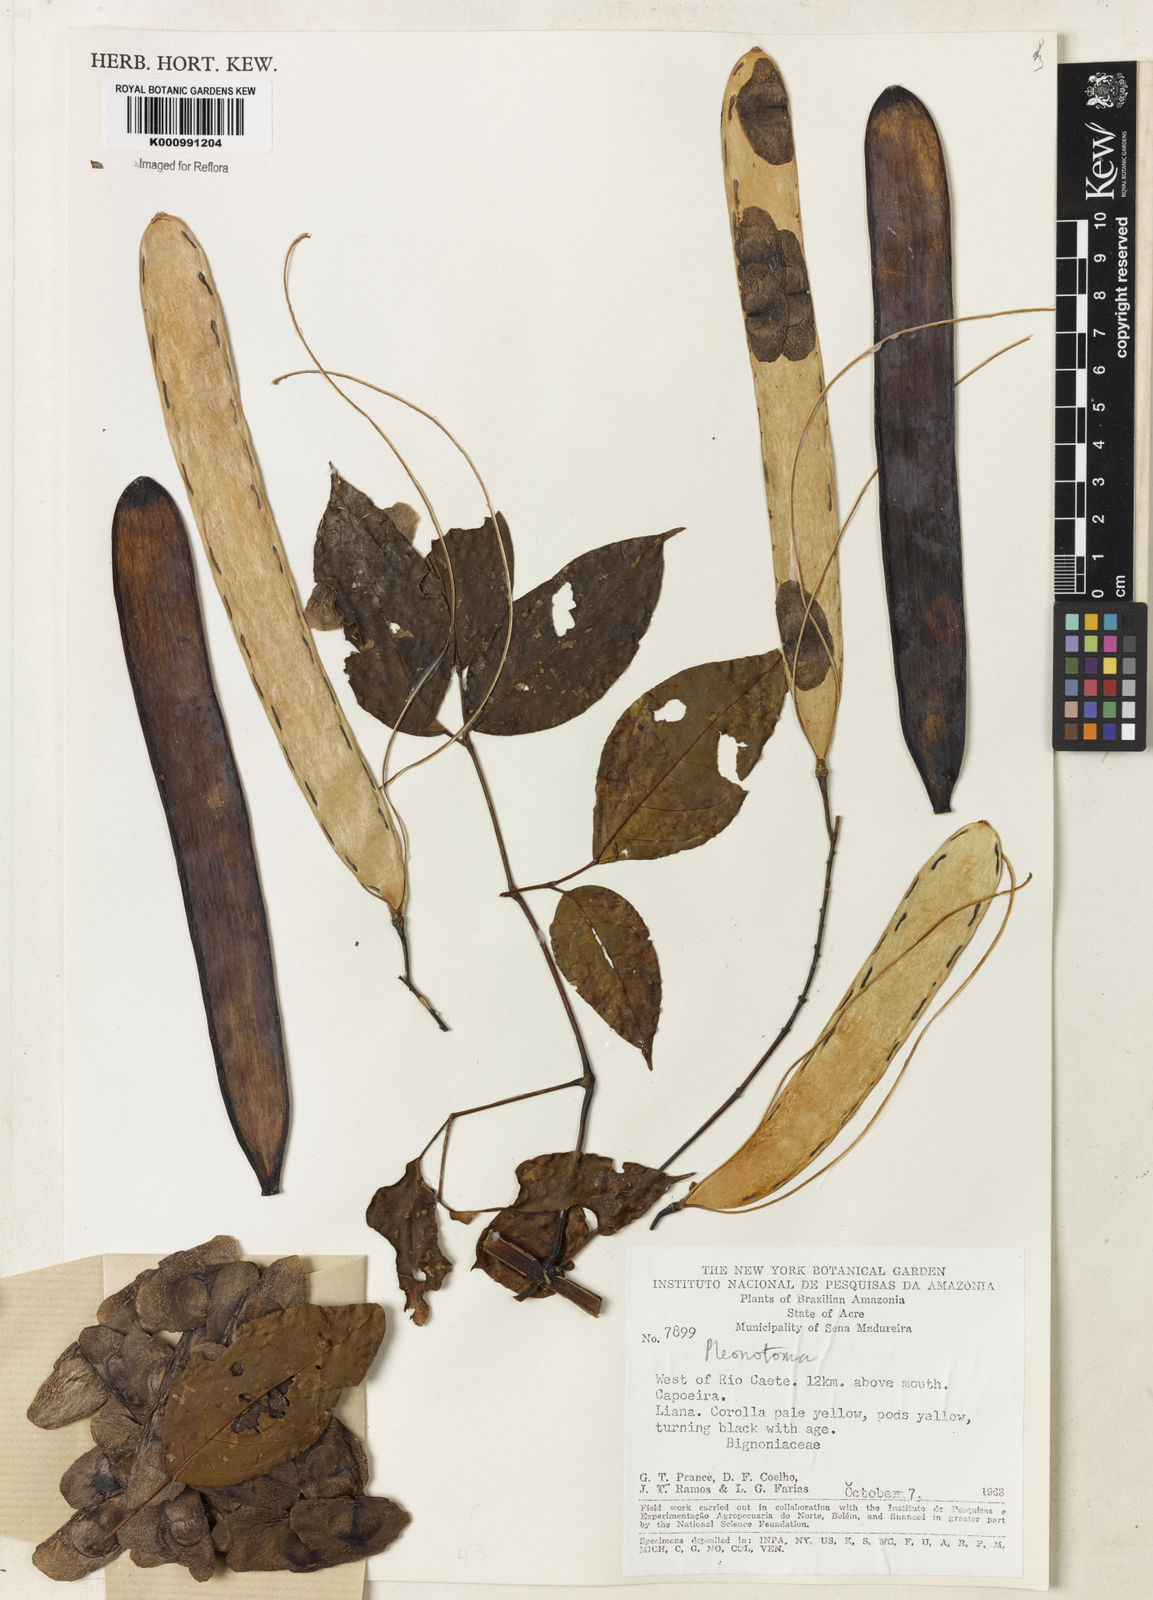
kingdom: Plantae
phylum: Tracheophyta
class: Magnoliopsida
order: Lamiales
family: Bignoniaceae
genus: Pleonotoma
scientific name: Pleonotoma
